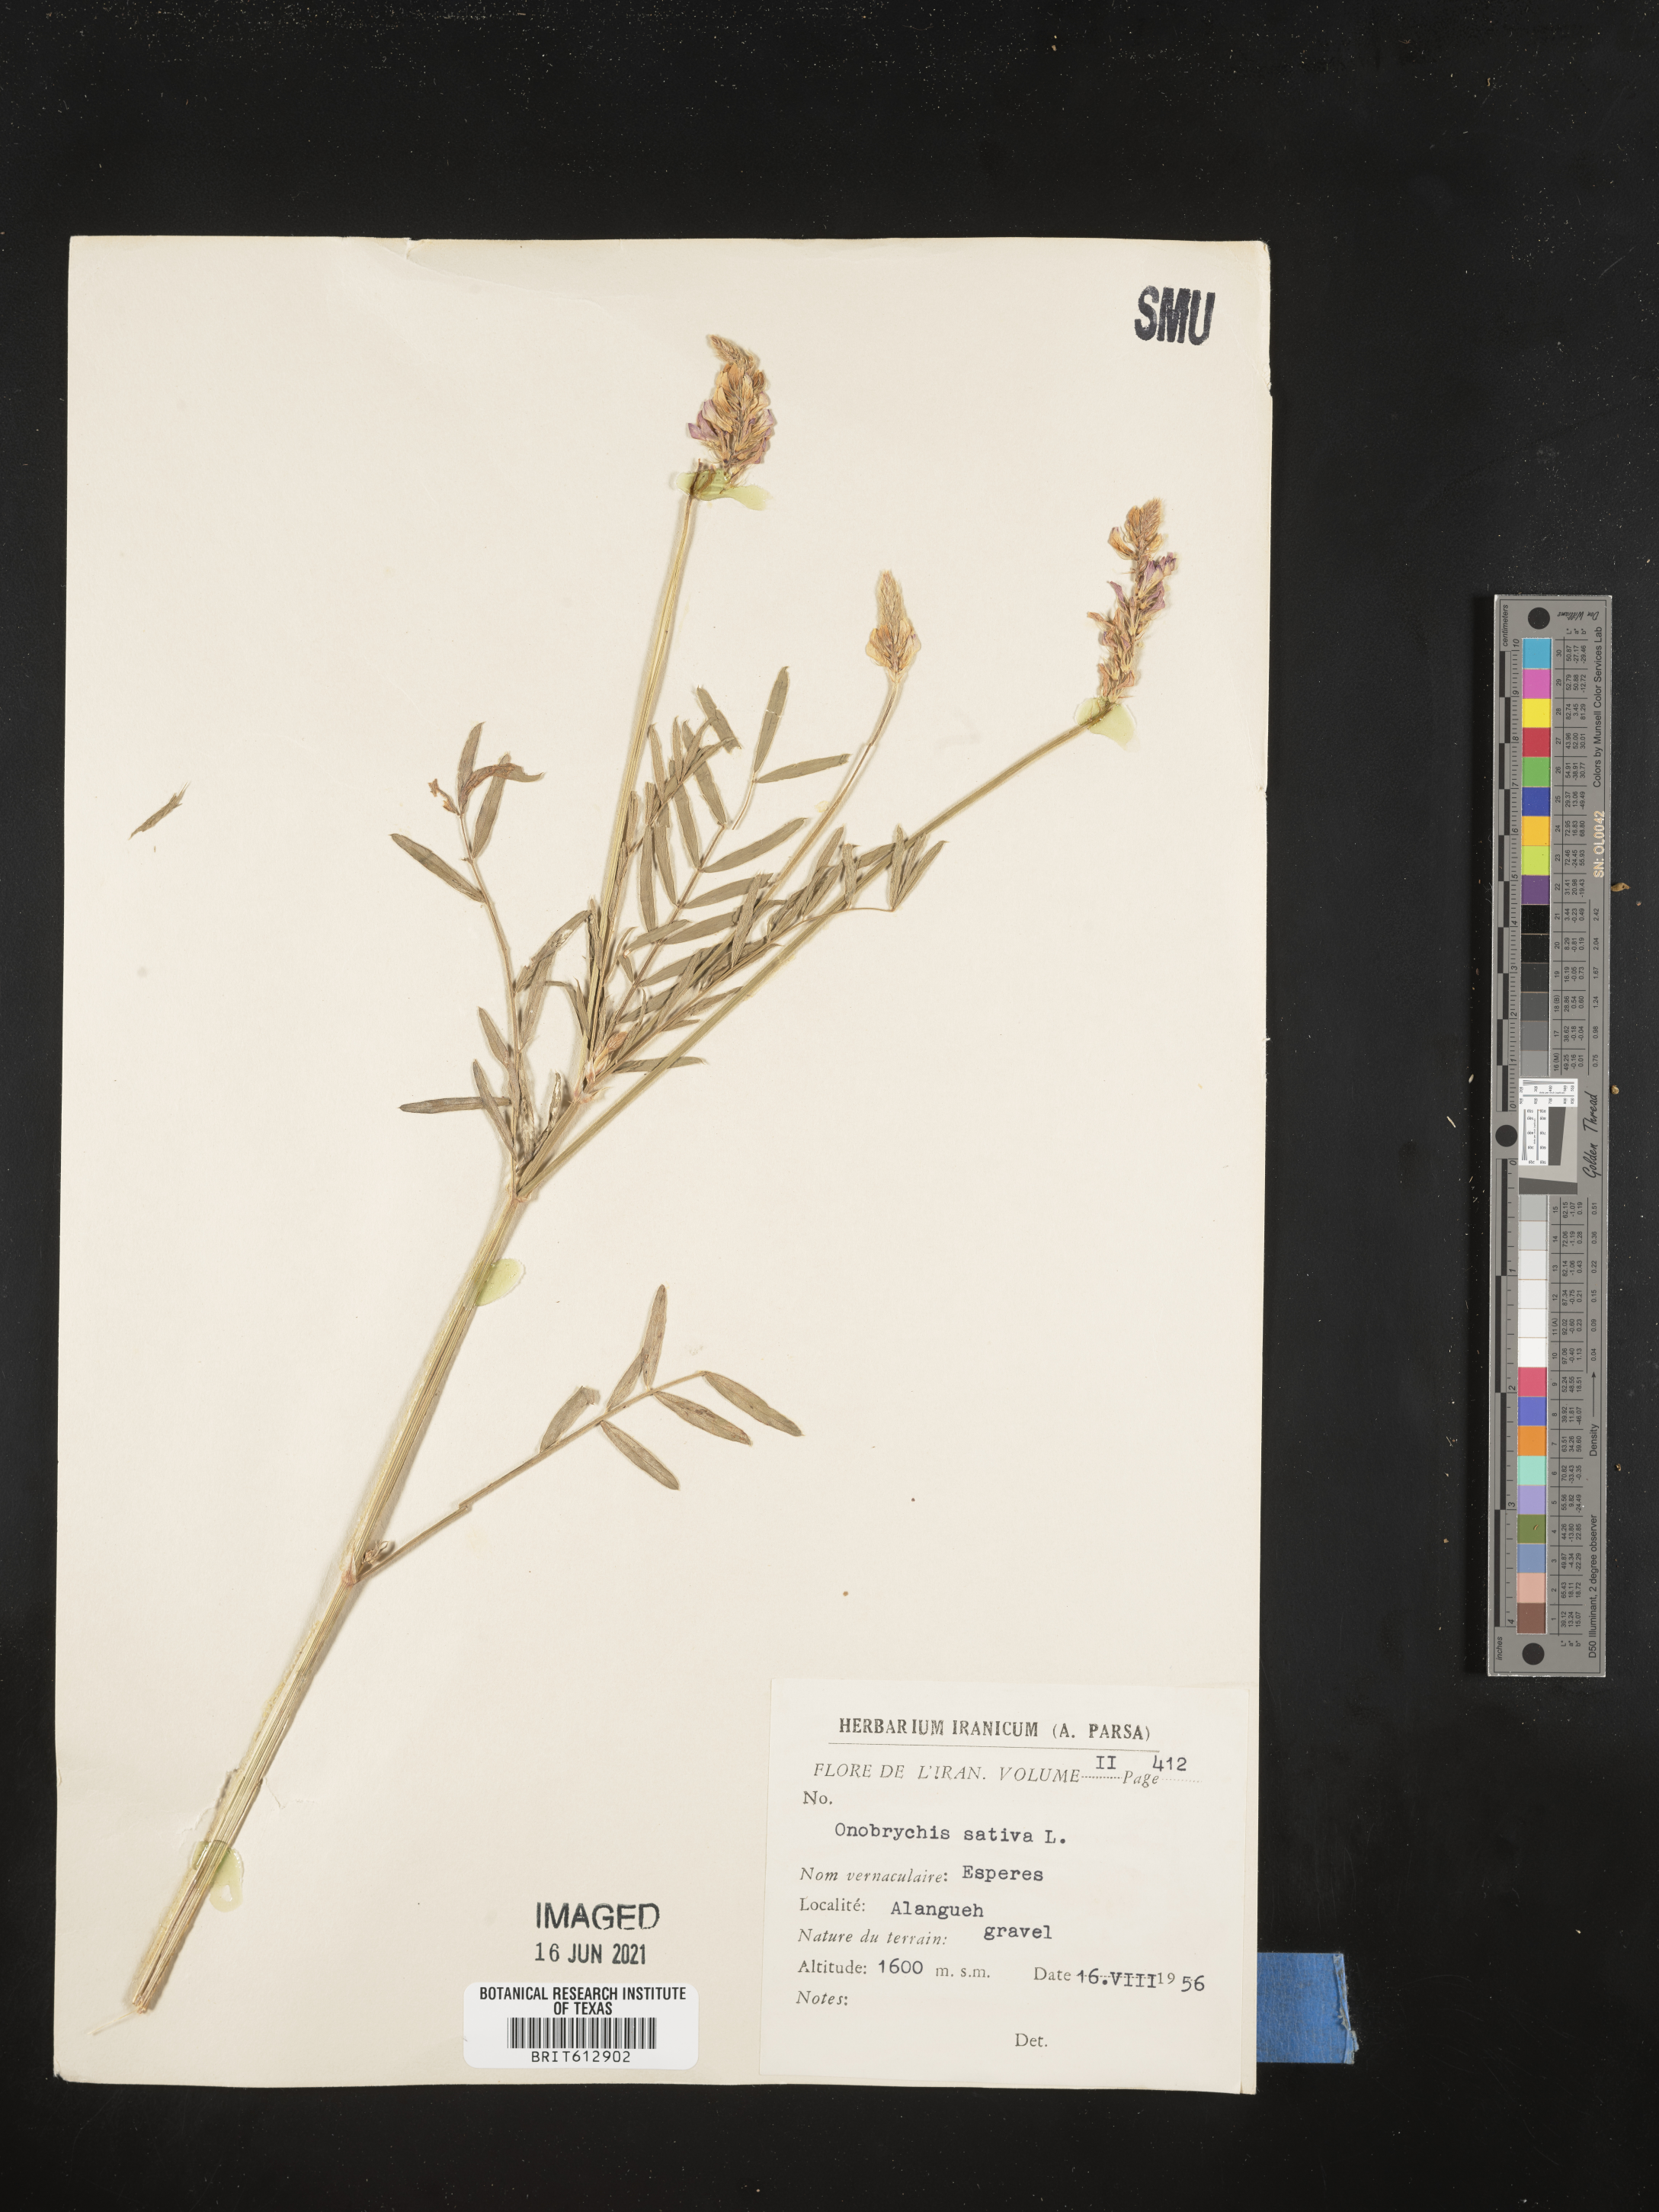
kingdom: Plantae
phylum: Tracheophyta
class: Magnoliopsida
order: Fabales
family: Fabaceae
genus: Onobrychis
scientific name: Onobrychis viciifolia
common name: Sainfoin
